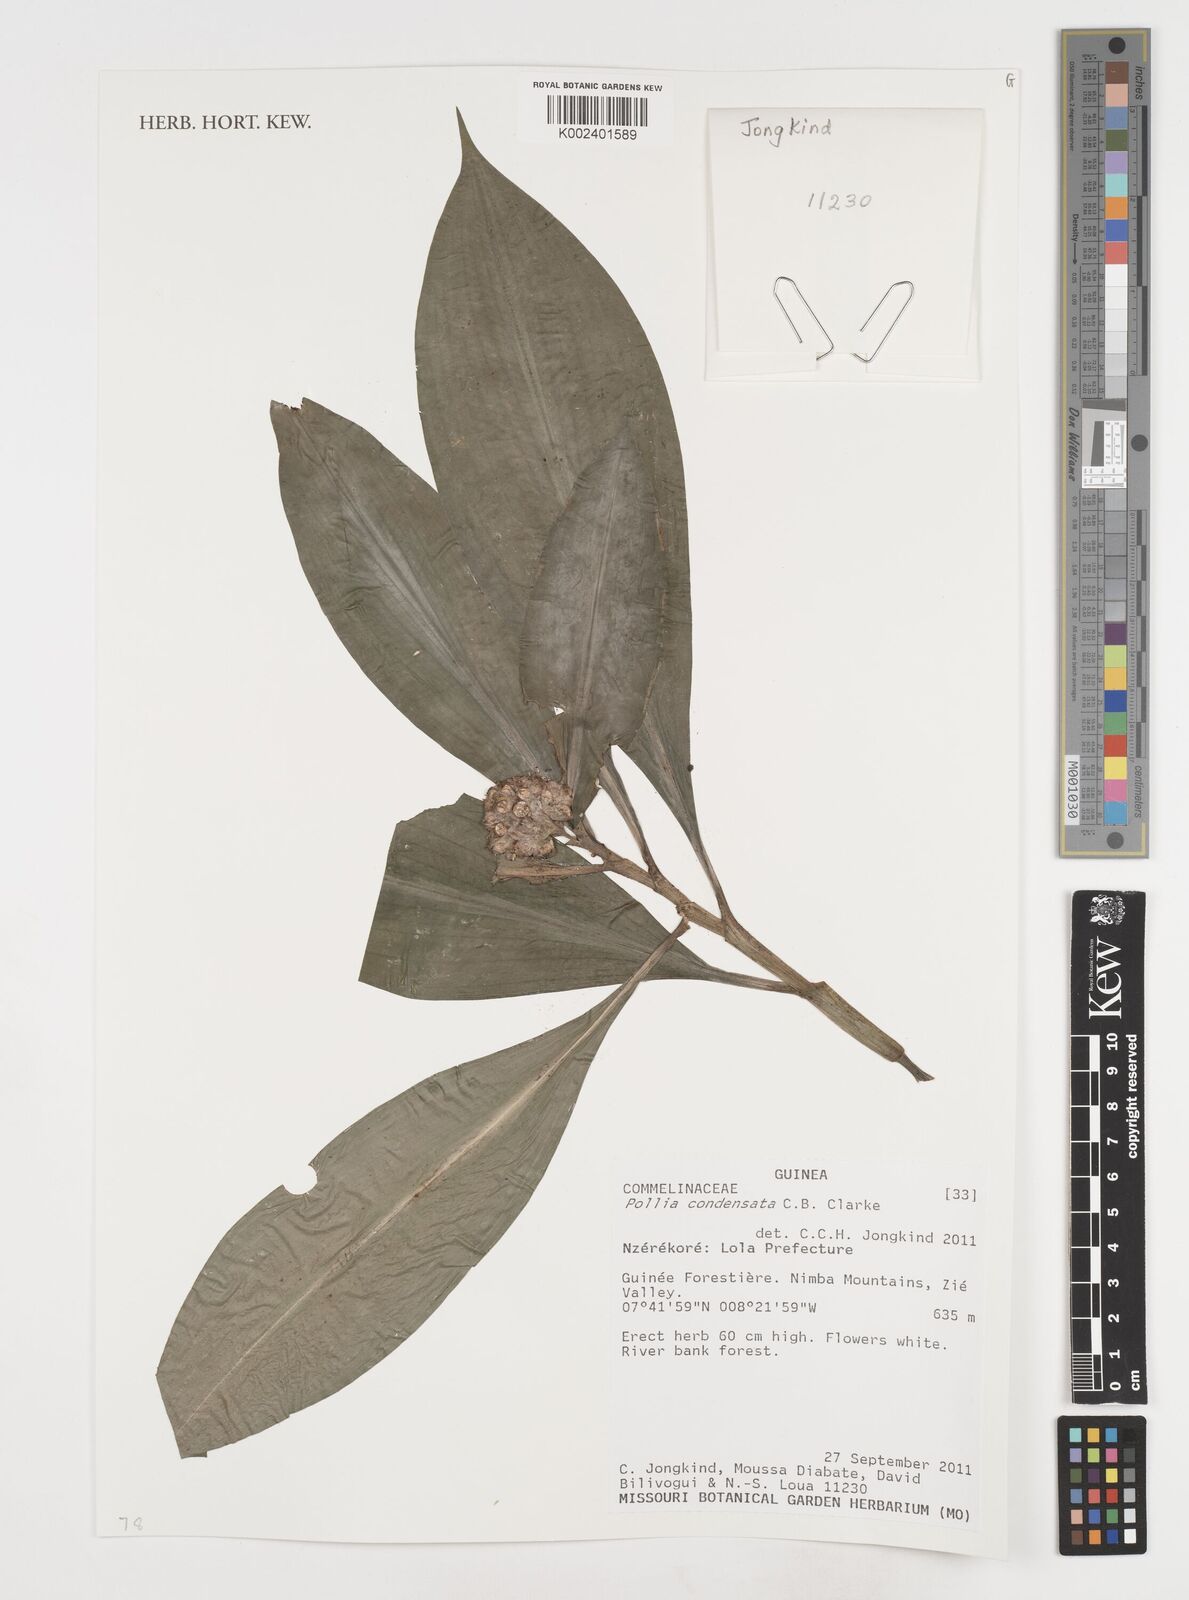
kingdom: Plantae
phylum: Tracheophyta
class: Liliopsida
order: Commelinales
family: Commelinaceae
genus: Pollia
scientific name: Pollia condensata
